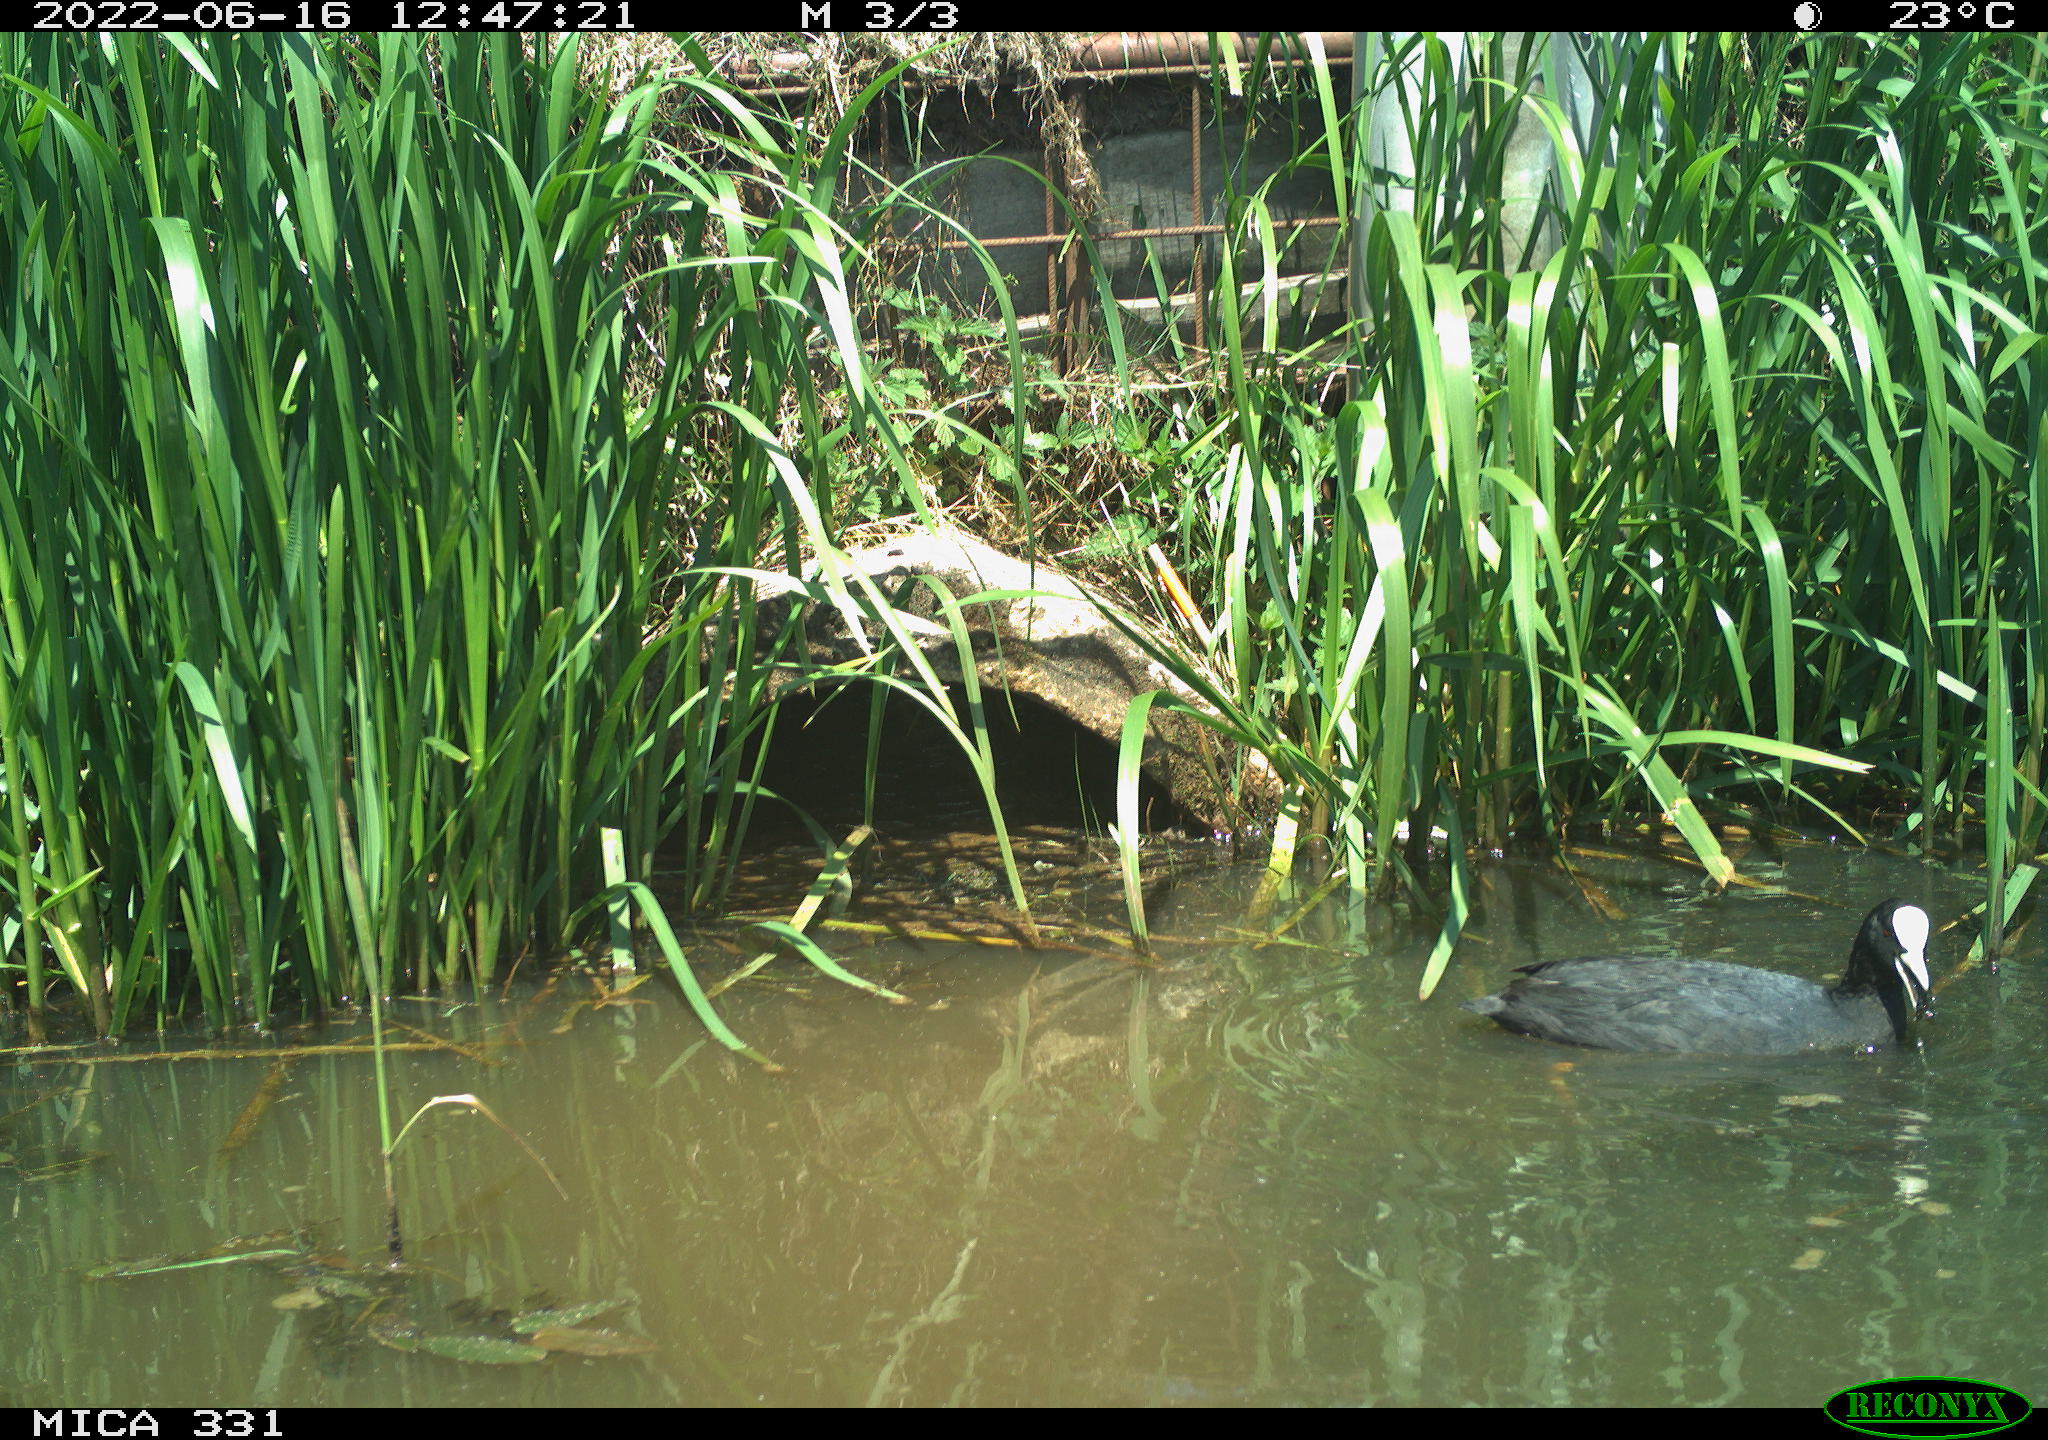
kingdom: Animalia
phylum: Chordata
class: Aves
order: Gruiformes
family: Rallidae
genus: Fulica
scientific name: Fulica atra
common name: Eurasian coot
